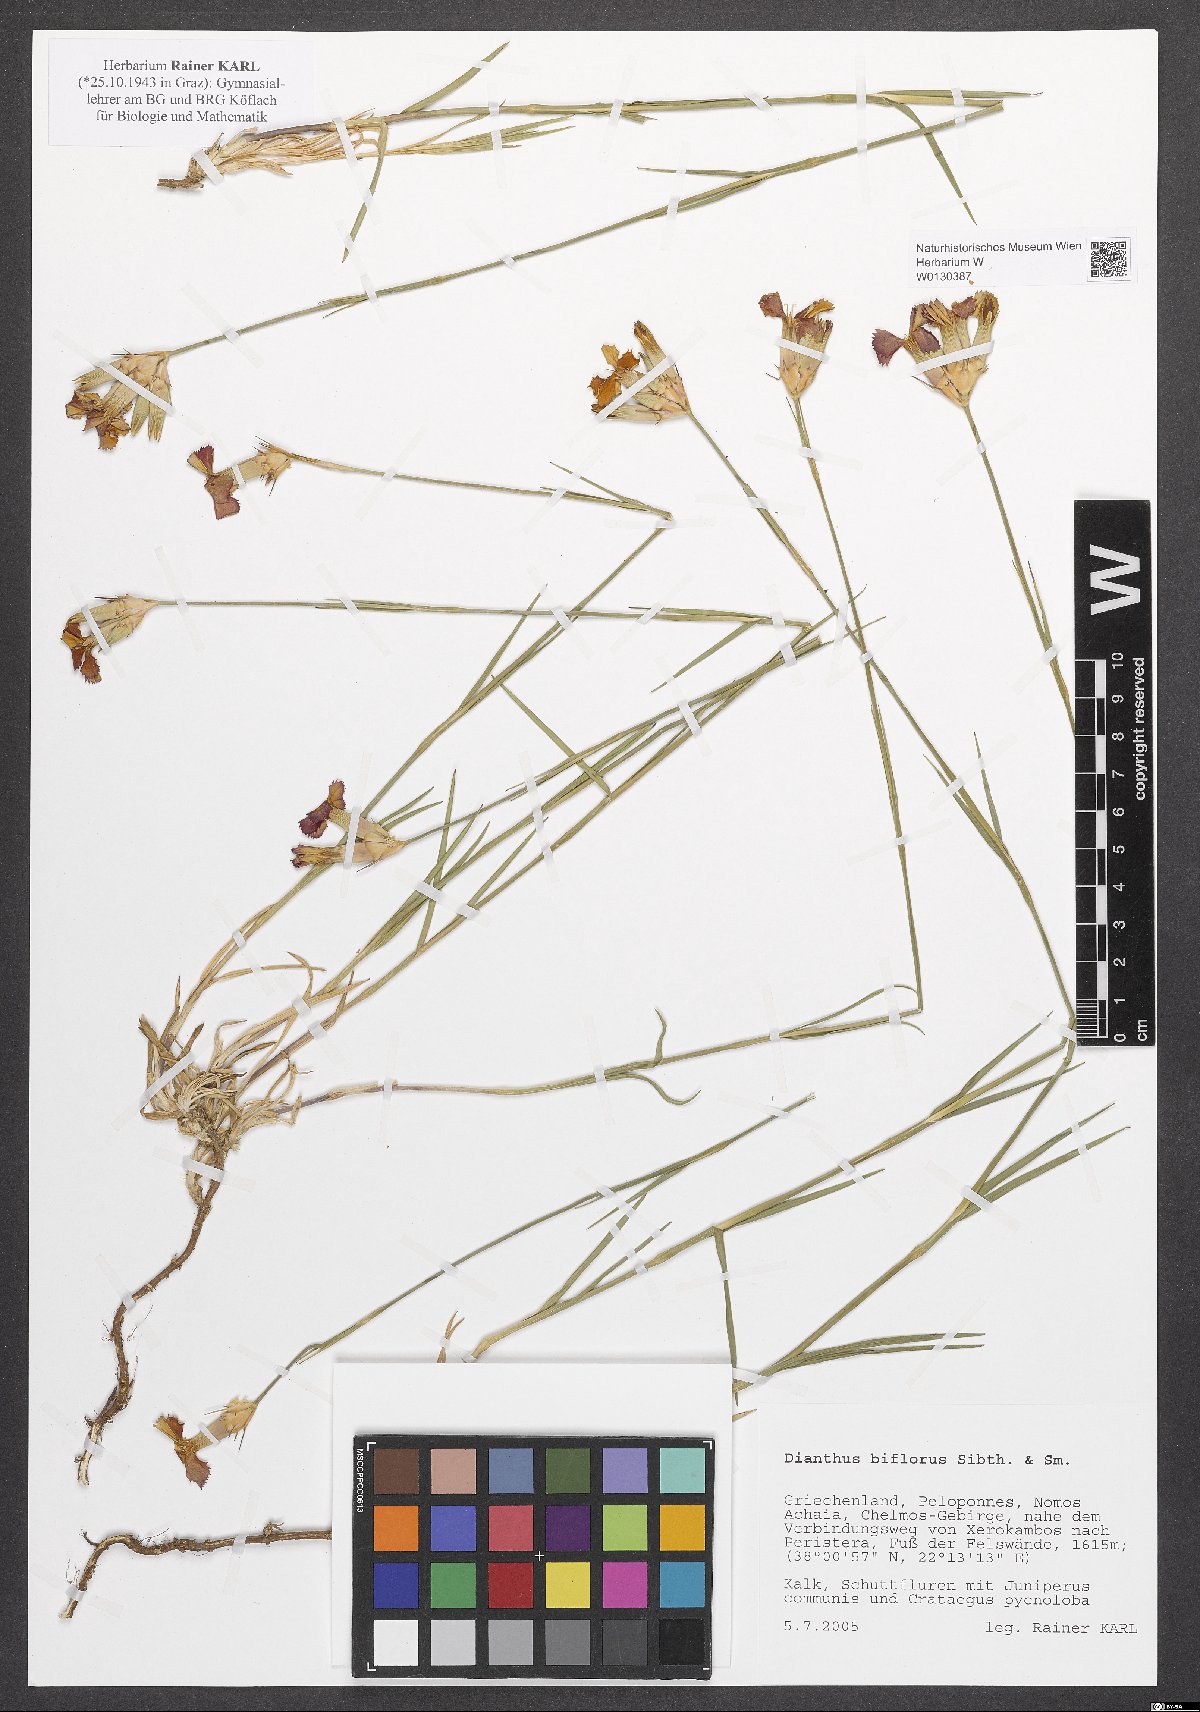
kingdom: Plantae
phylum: Tracheophyta
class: Magnoliopsida
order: Caryophyllales
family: Caryophyllaceae
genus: Dianthus
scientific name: Dianthus biflorus
